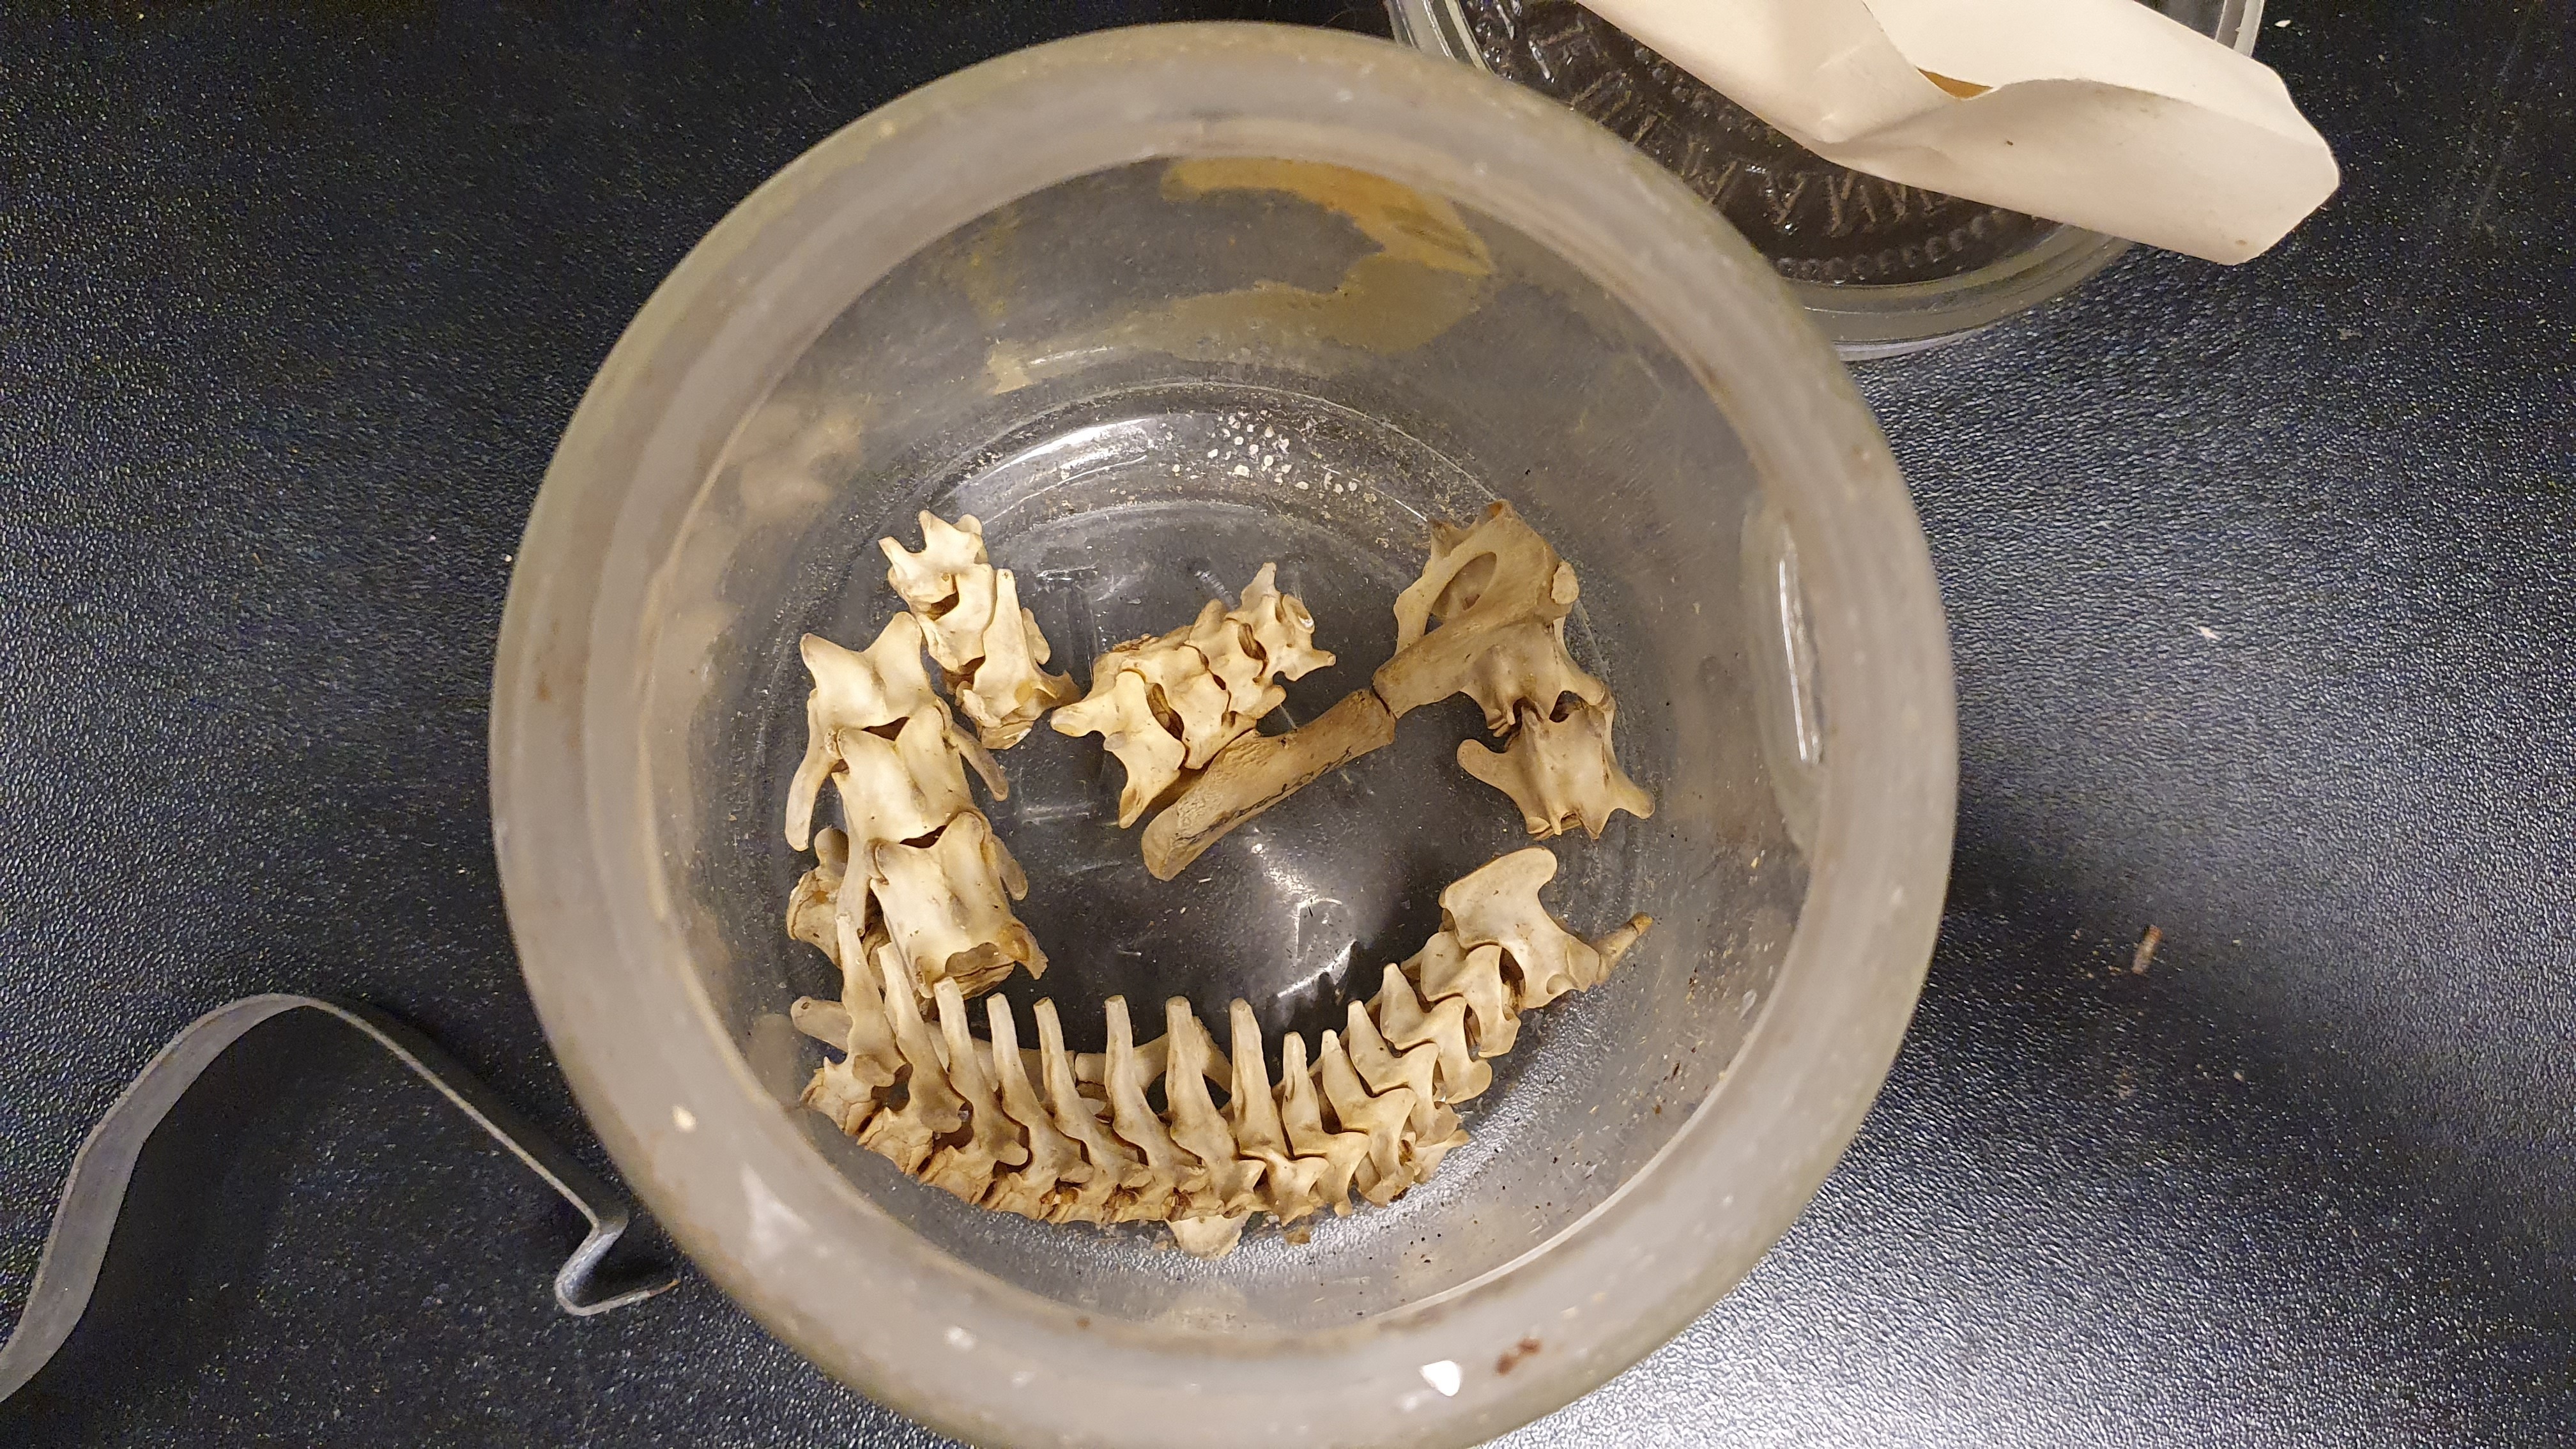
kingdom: Animalia
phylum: Chordata
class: Mammalia
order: Carnivora
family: Felidae
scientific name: Felidae
